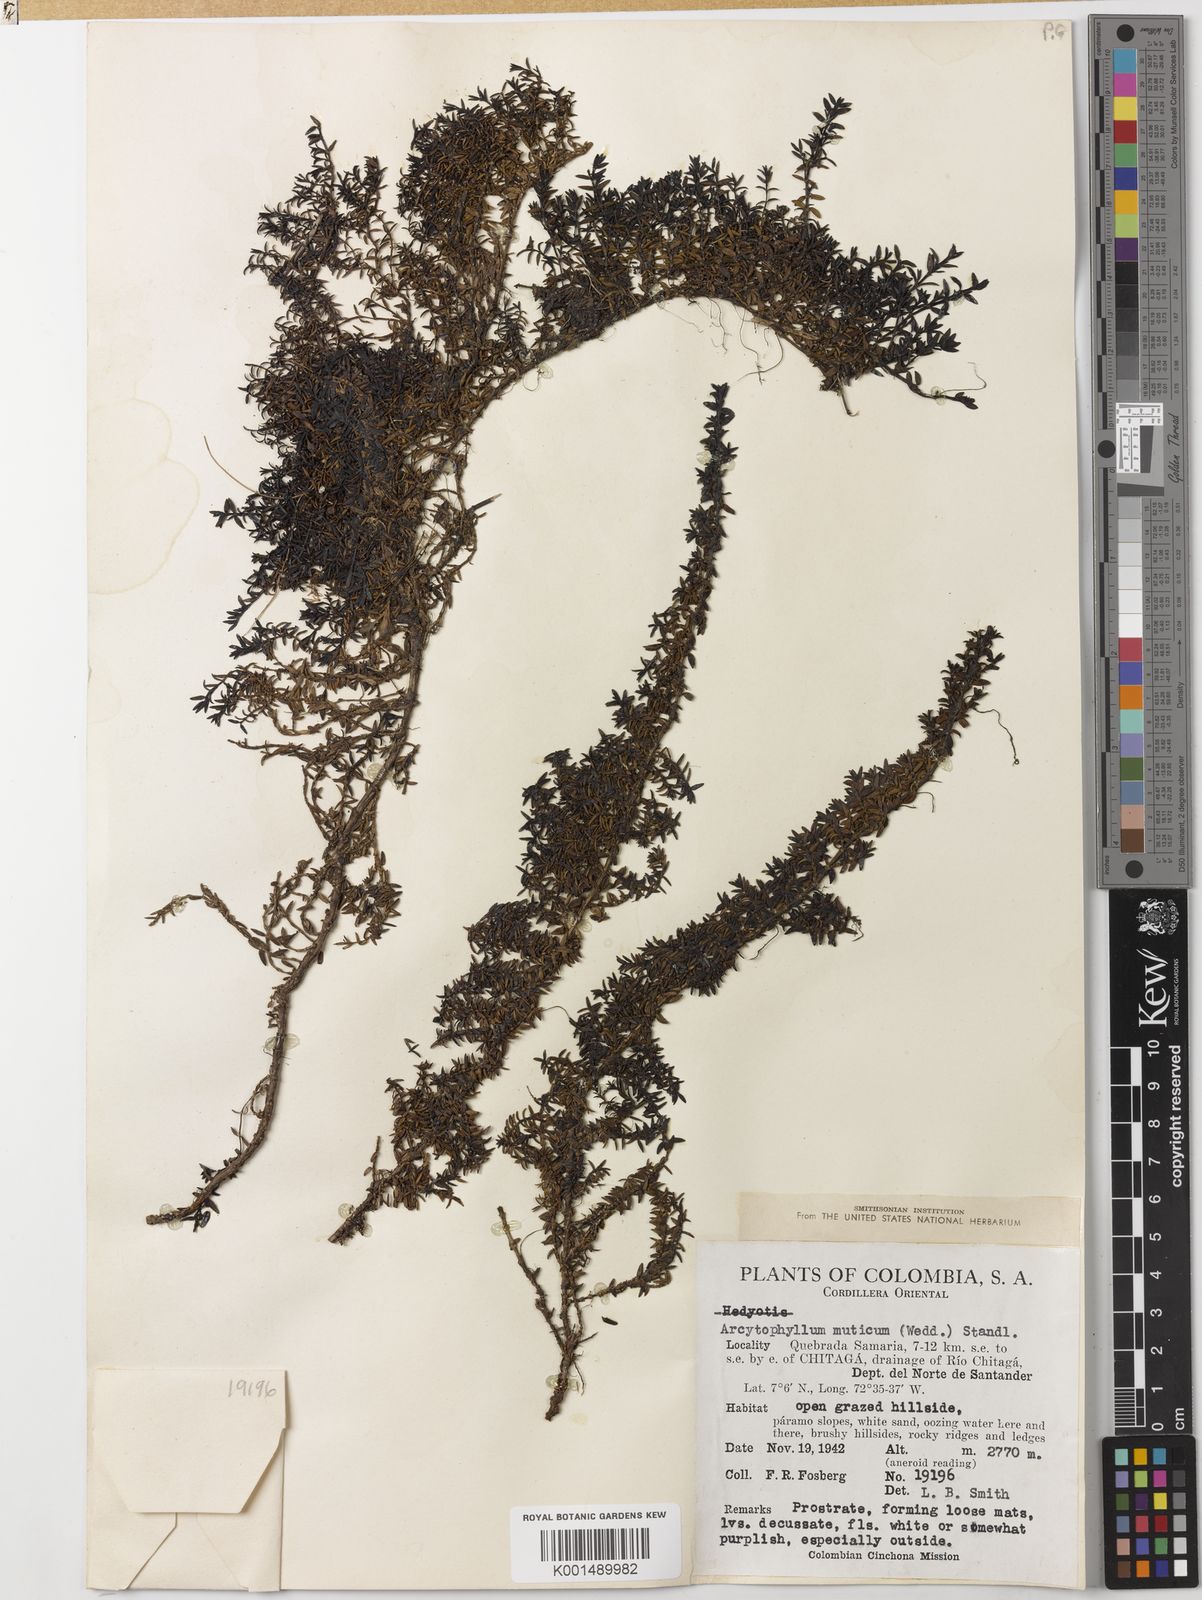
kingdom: Plantae
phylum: Tracheophyta
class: Magnoliopsida
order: Gentianales
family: Rubiaceae
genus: Arcytophyllum
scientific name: Arcytophyllum muticum
